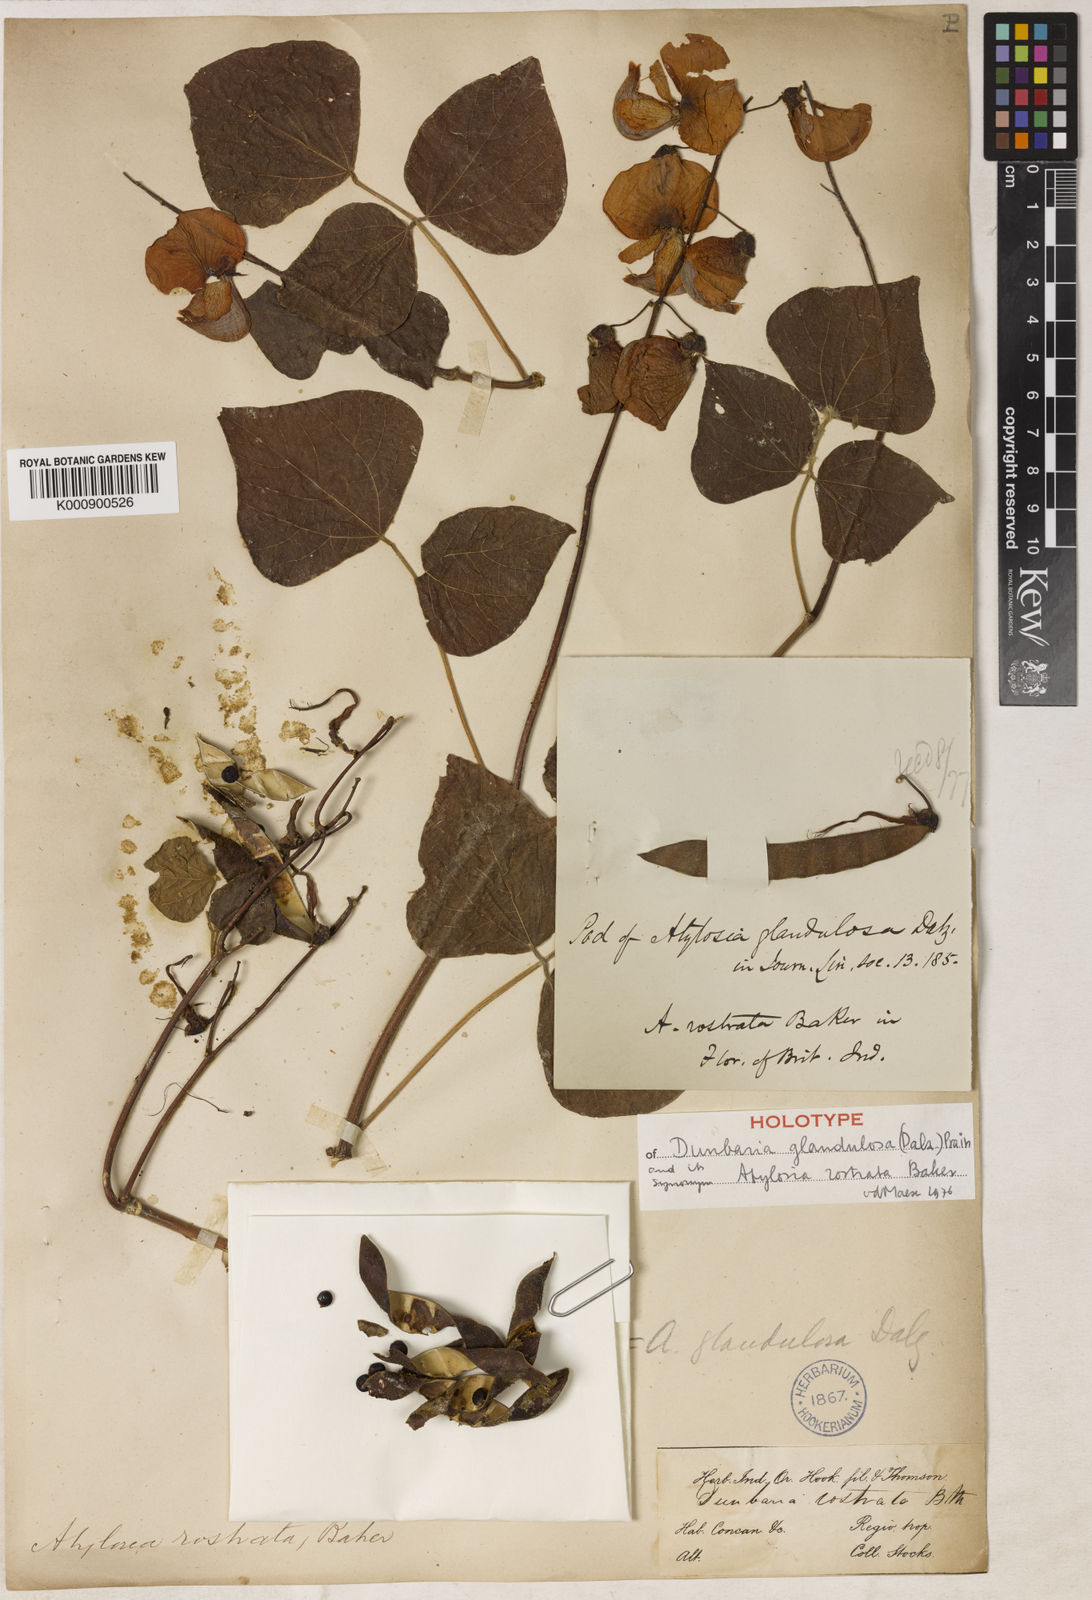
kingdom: Plantae
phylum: Tracheophyta
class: Magnoliopsida
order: Fabales
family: Fabaceae
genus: Dunbaria
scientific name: Dunbaria glandulosa
